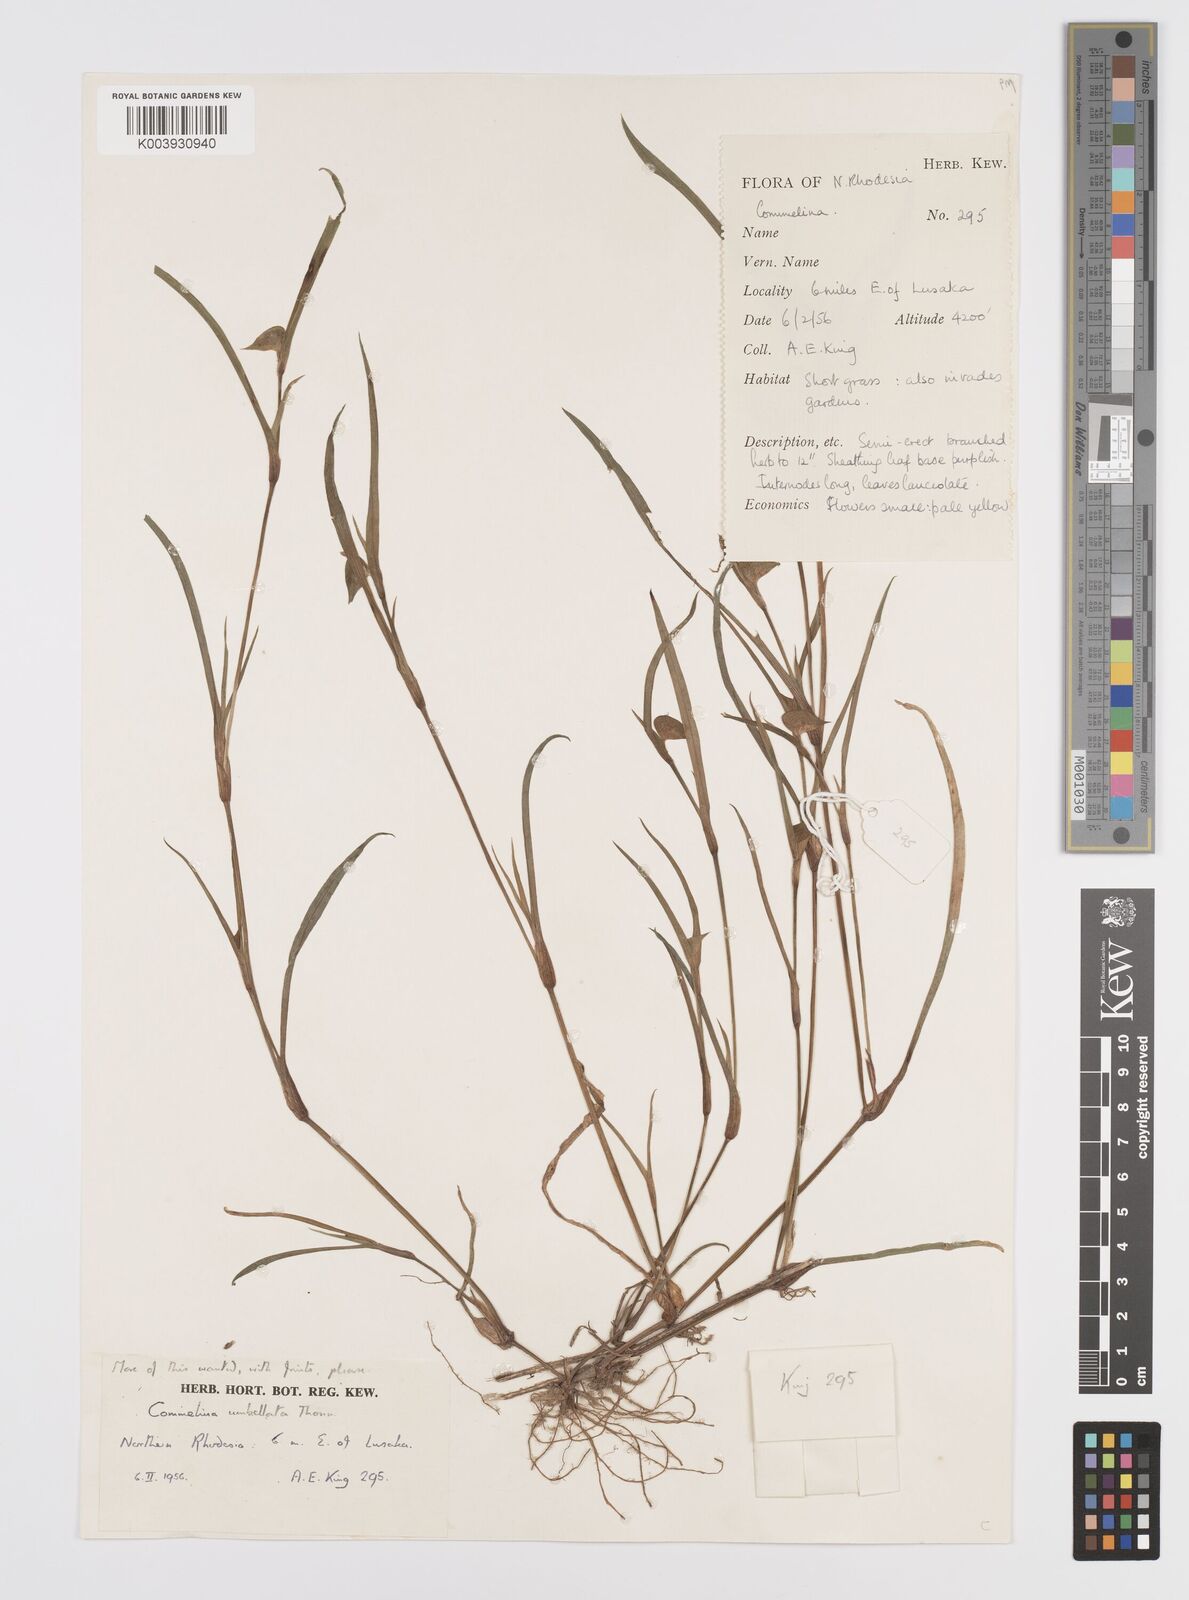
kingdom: Plantae
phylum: Tracheophyta
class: Liliopsida
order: Commelinales
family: Commelinaceae
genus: Commelina
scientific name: Commelina nigritana
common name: African dayflower
